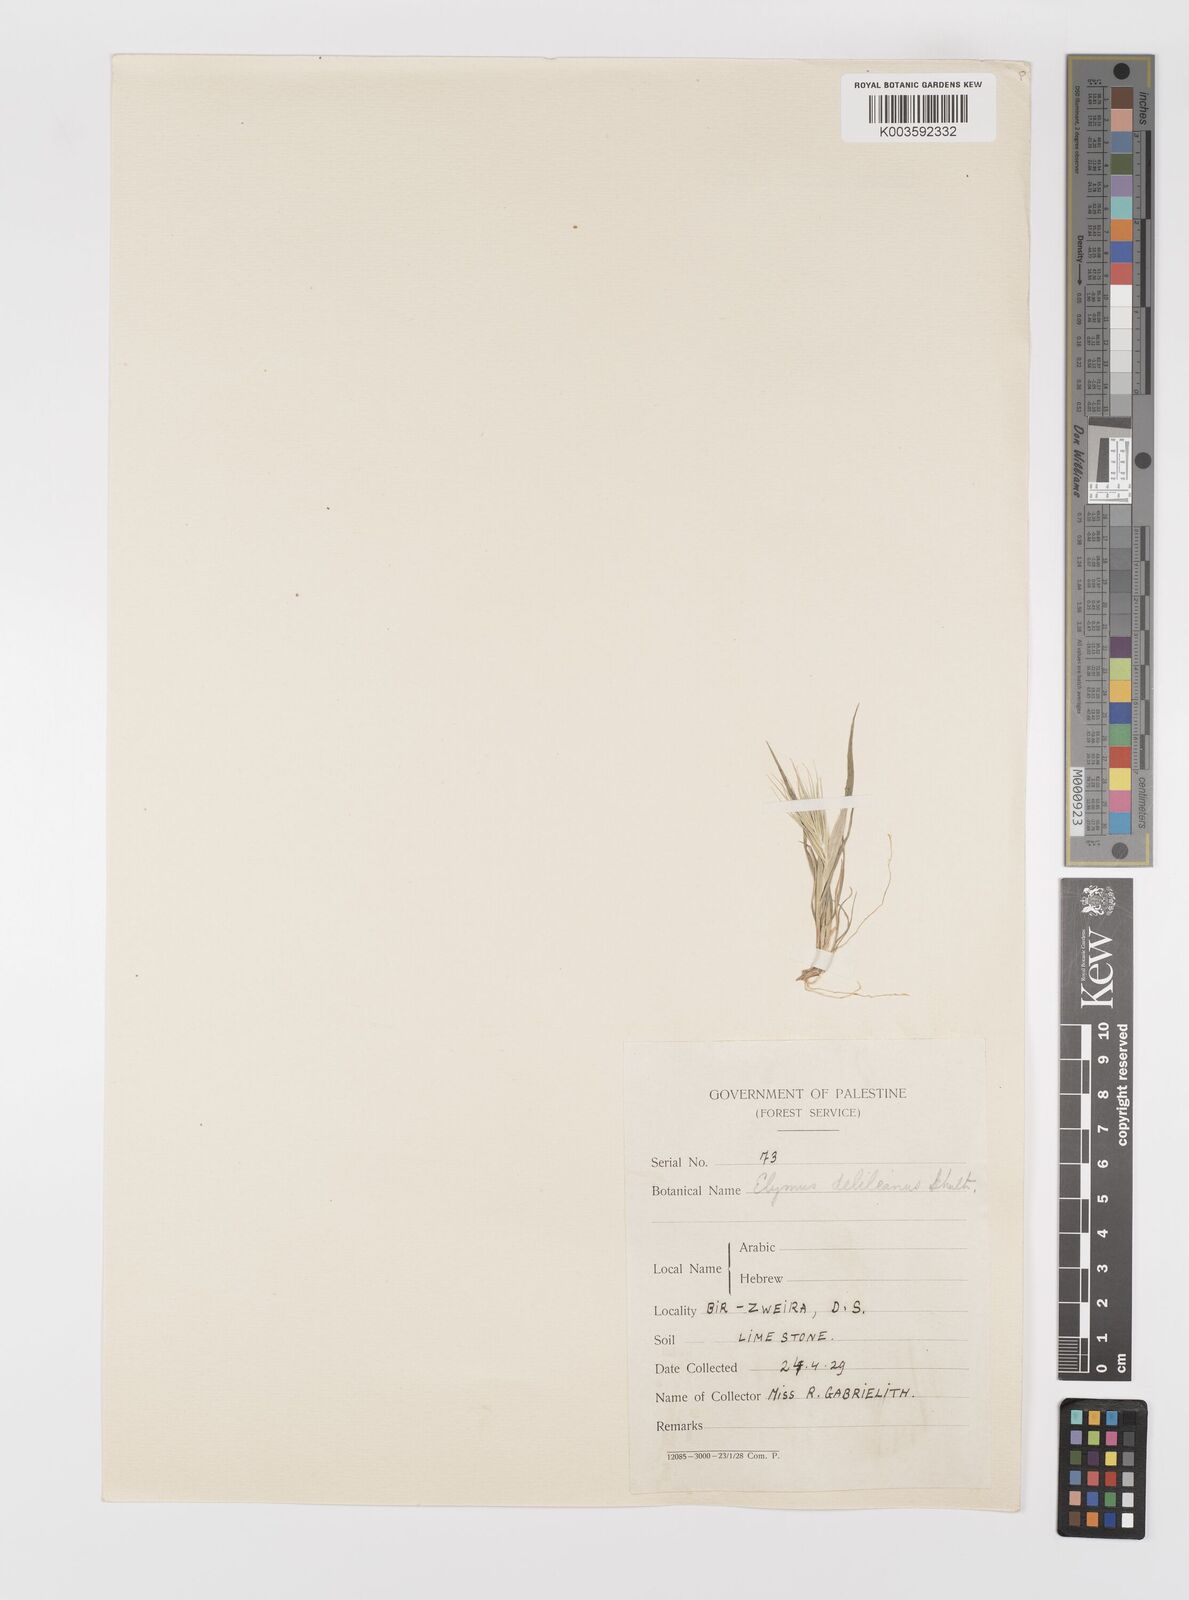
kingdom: Plantae
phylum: Tracheophyta
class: Liliopsida
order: Poales
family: Poaceae
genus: Crithopsis
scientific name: Crithopsis delileana
